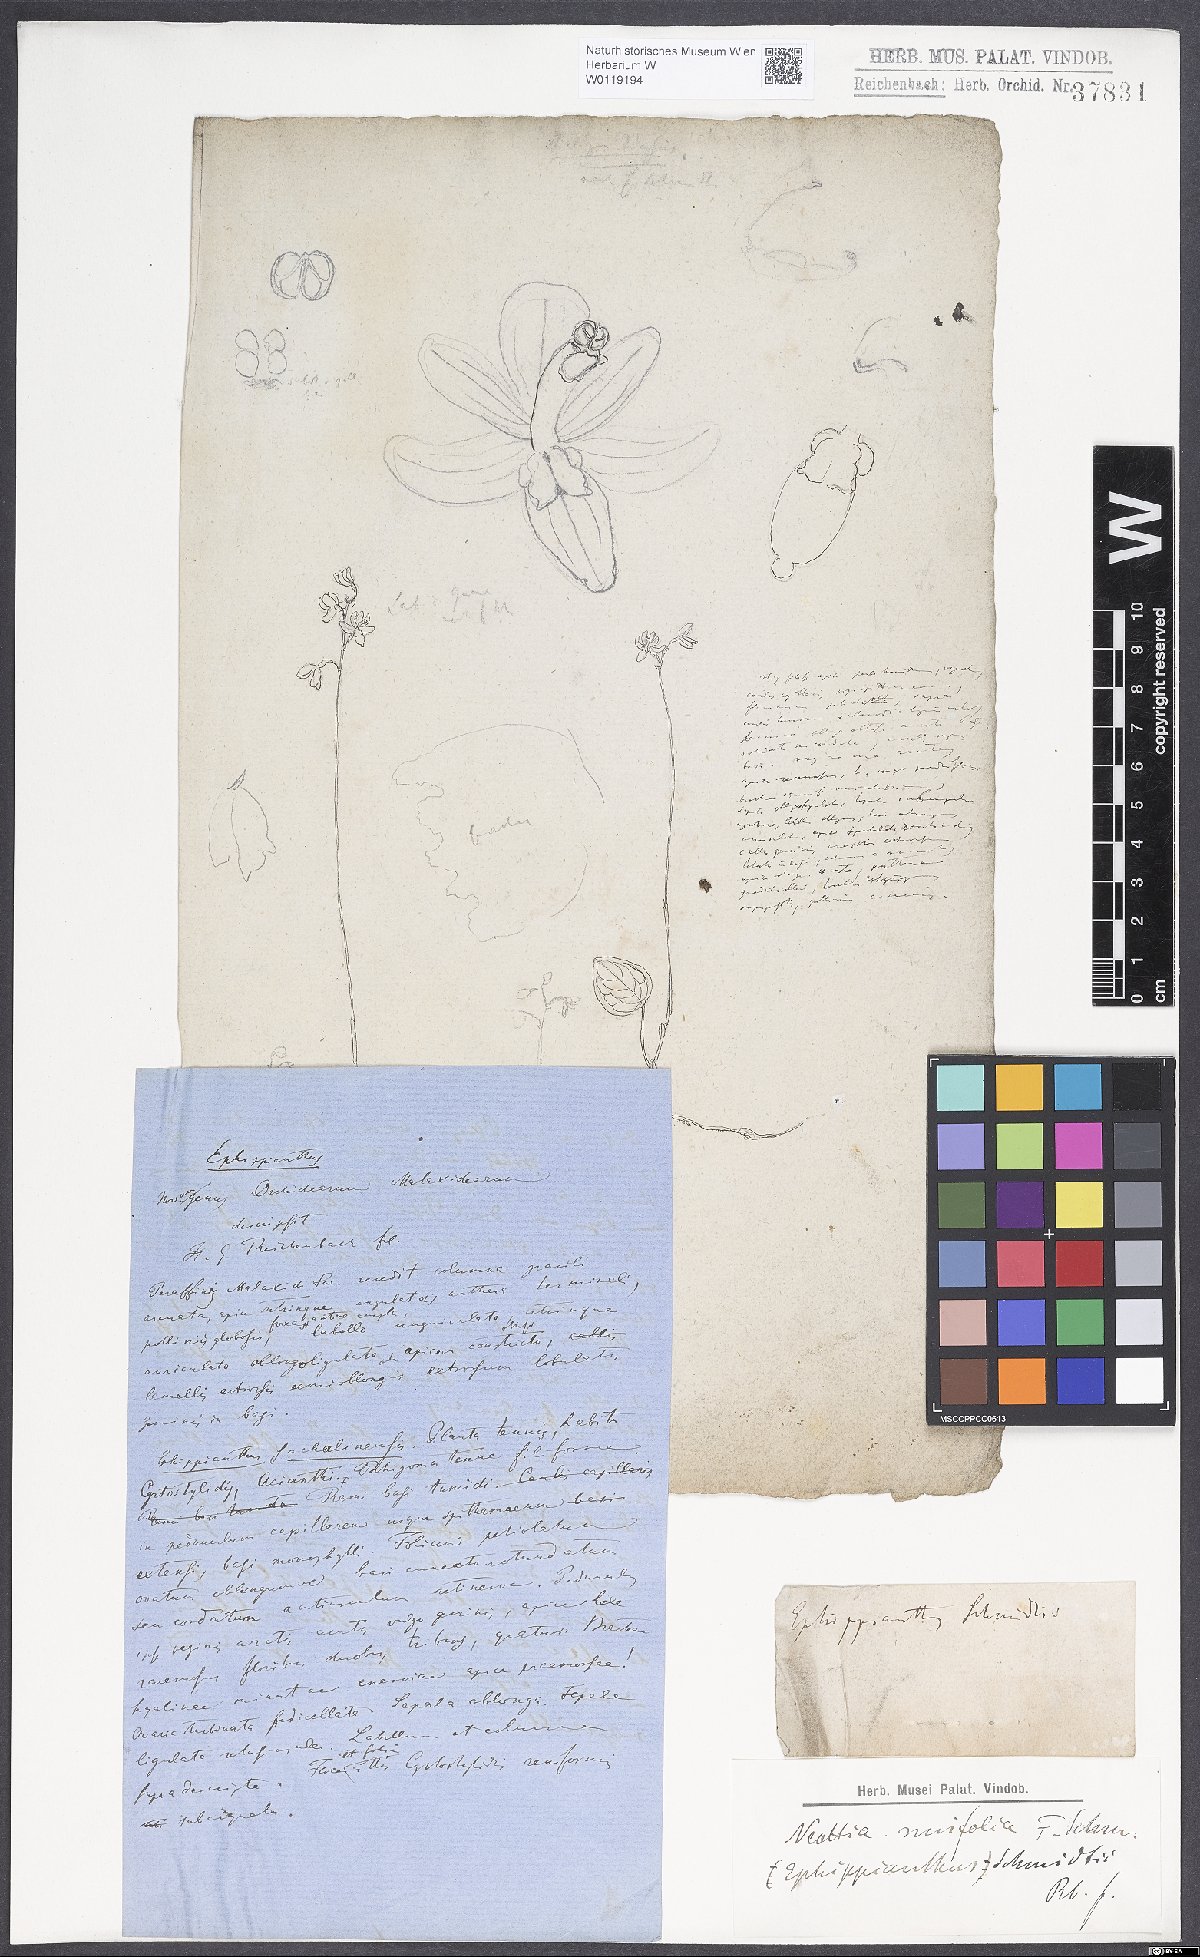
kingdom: Plantae
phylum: Tracheophyta
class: Liliopsida
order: Asparagales
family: Orchidaceae
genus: Ephippianthus
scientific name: Ephippianthus sachalinensis
